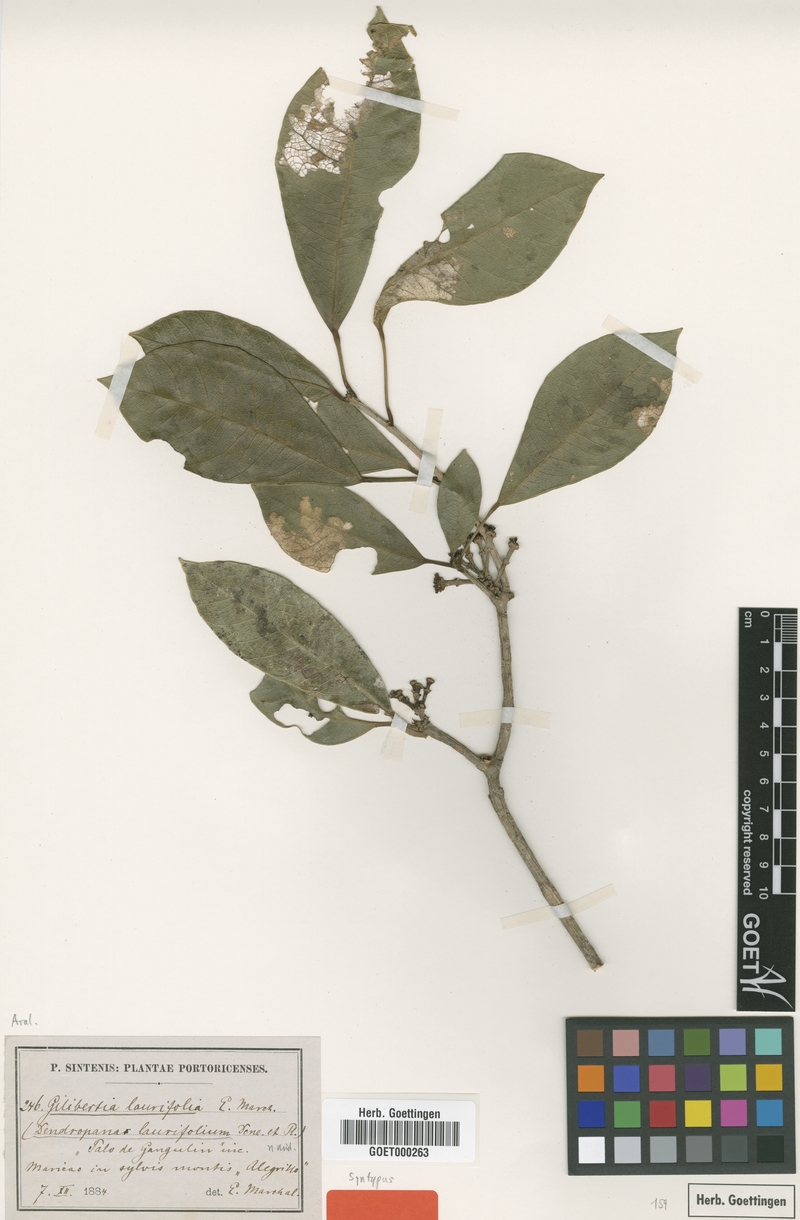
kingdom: Plantae
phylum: Tracheophyta
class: Magnoliopsida
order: Apiales
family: Araliaceae
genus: Dendropanax
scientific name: Dendropanax laurifolius
